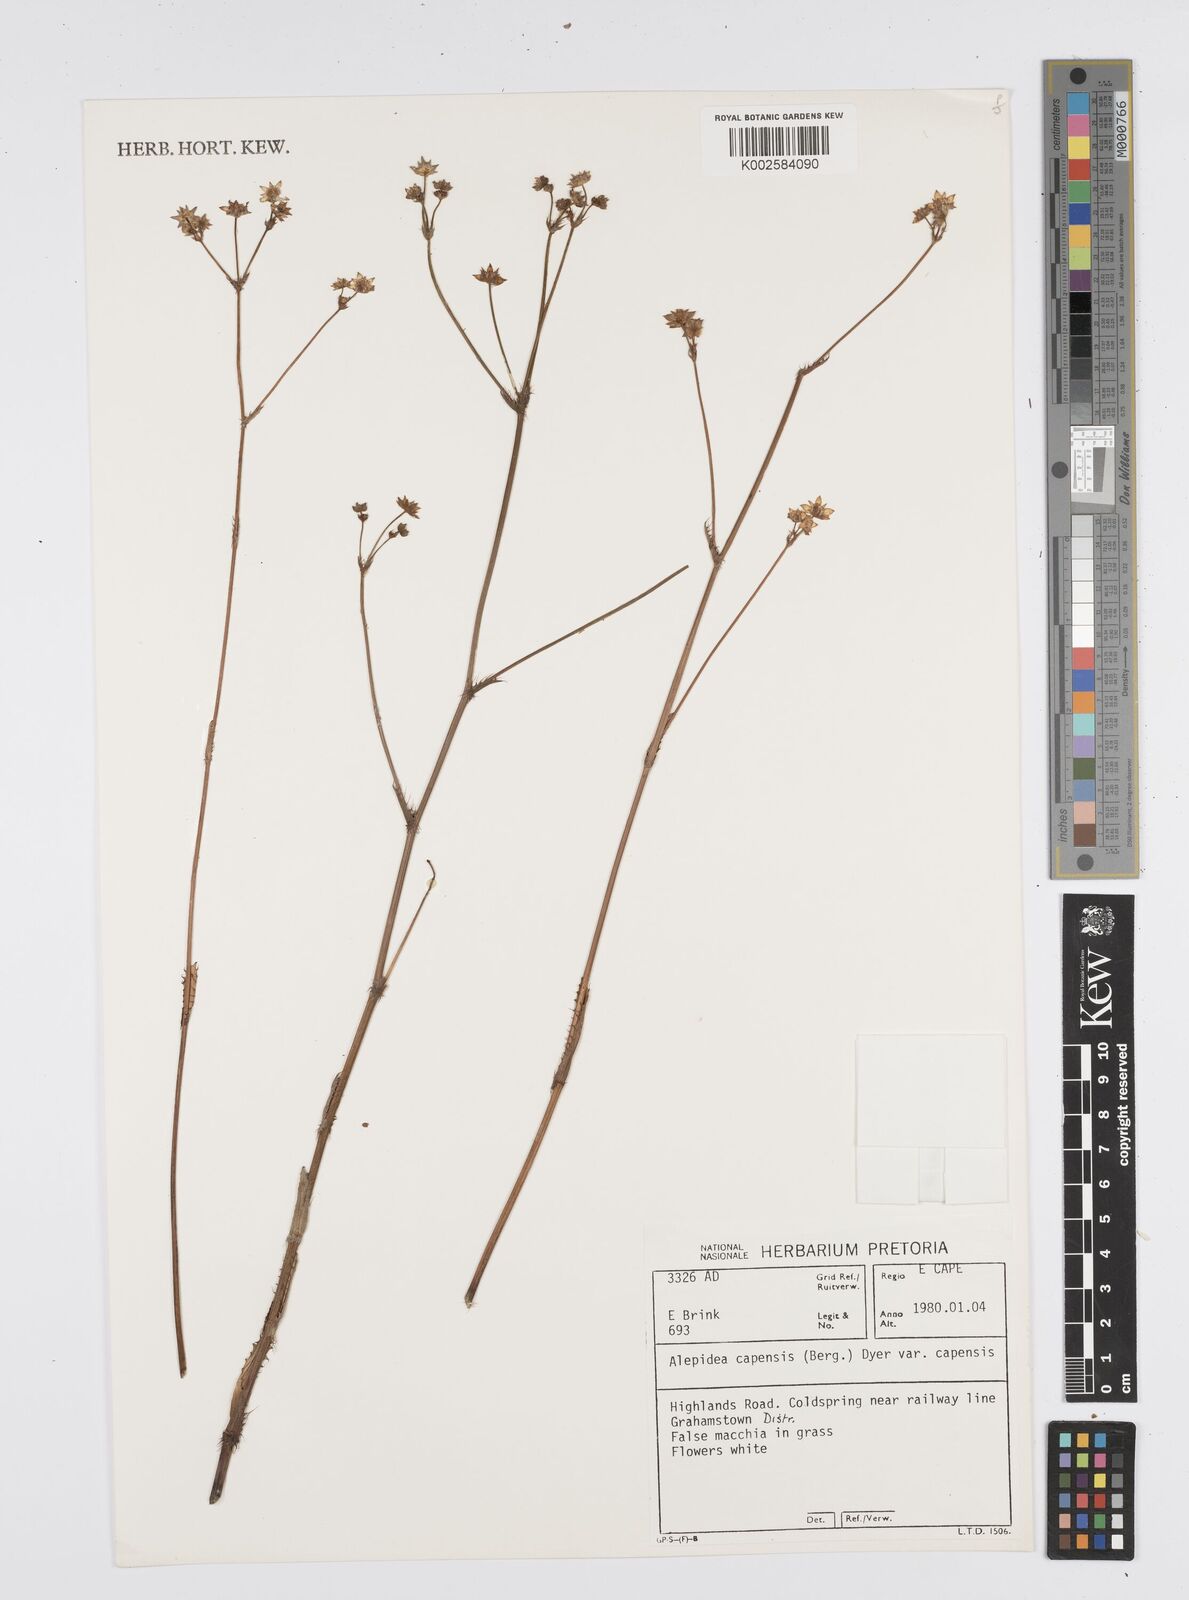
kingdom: Plantae
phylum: Tracheophyta
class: Magnoliopsida
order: Apiales
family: Apiaceae
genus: Alepidea
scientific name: Alepidea capensis
